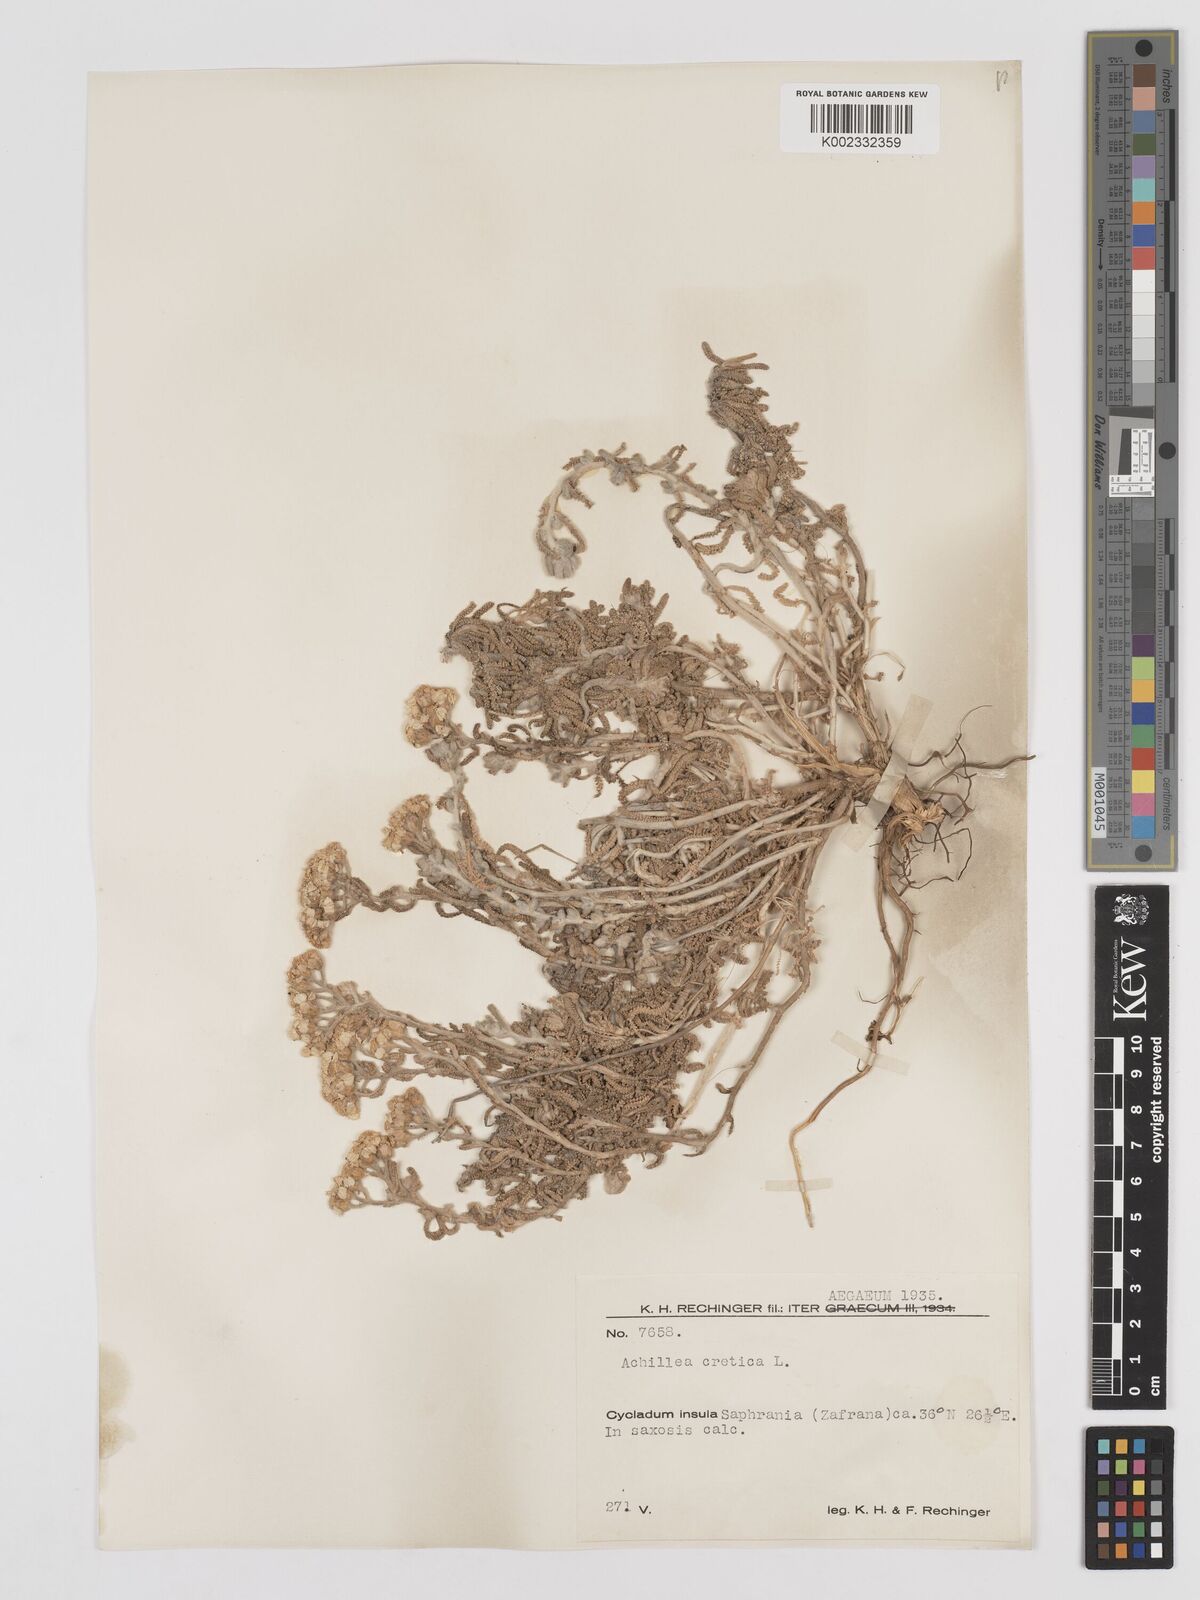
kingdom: Plantae
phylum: Tracheophyta
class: Magnoliopsida
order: Asterales
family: Asteraceae
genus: Achillea
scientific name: Achillea cretica
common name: Chamomile-leaved lavender-cotton
